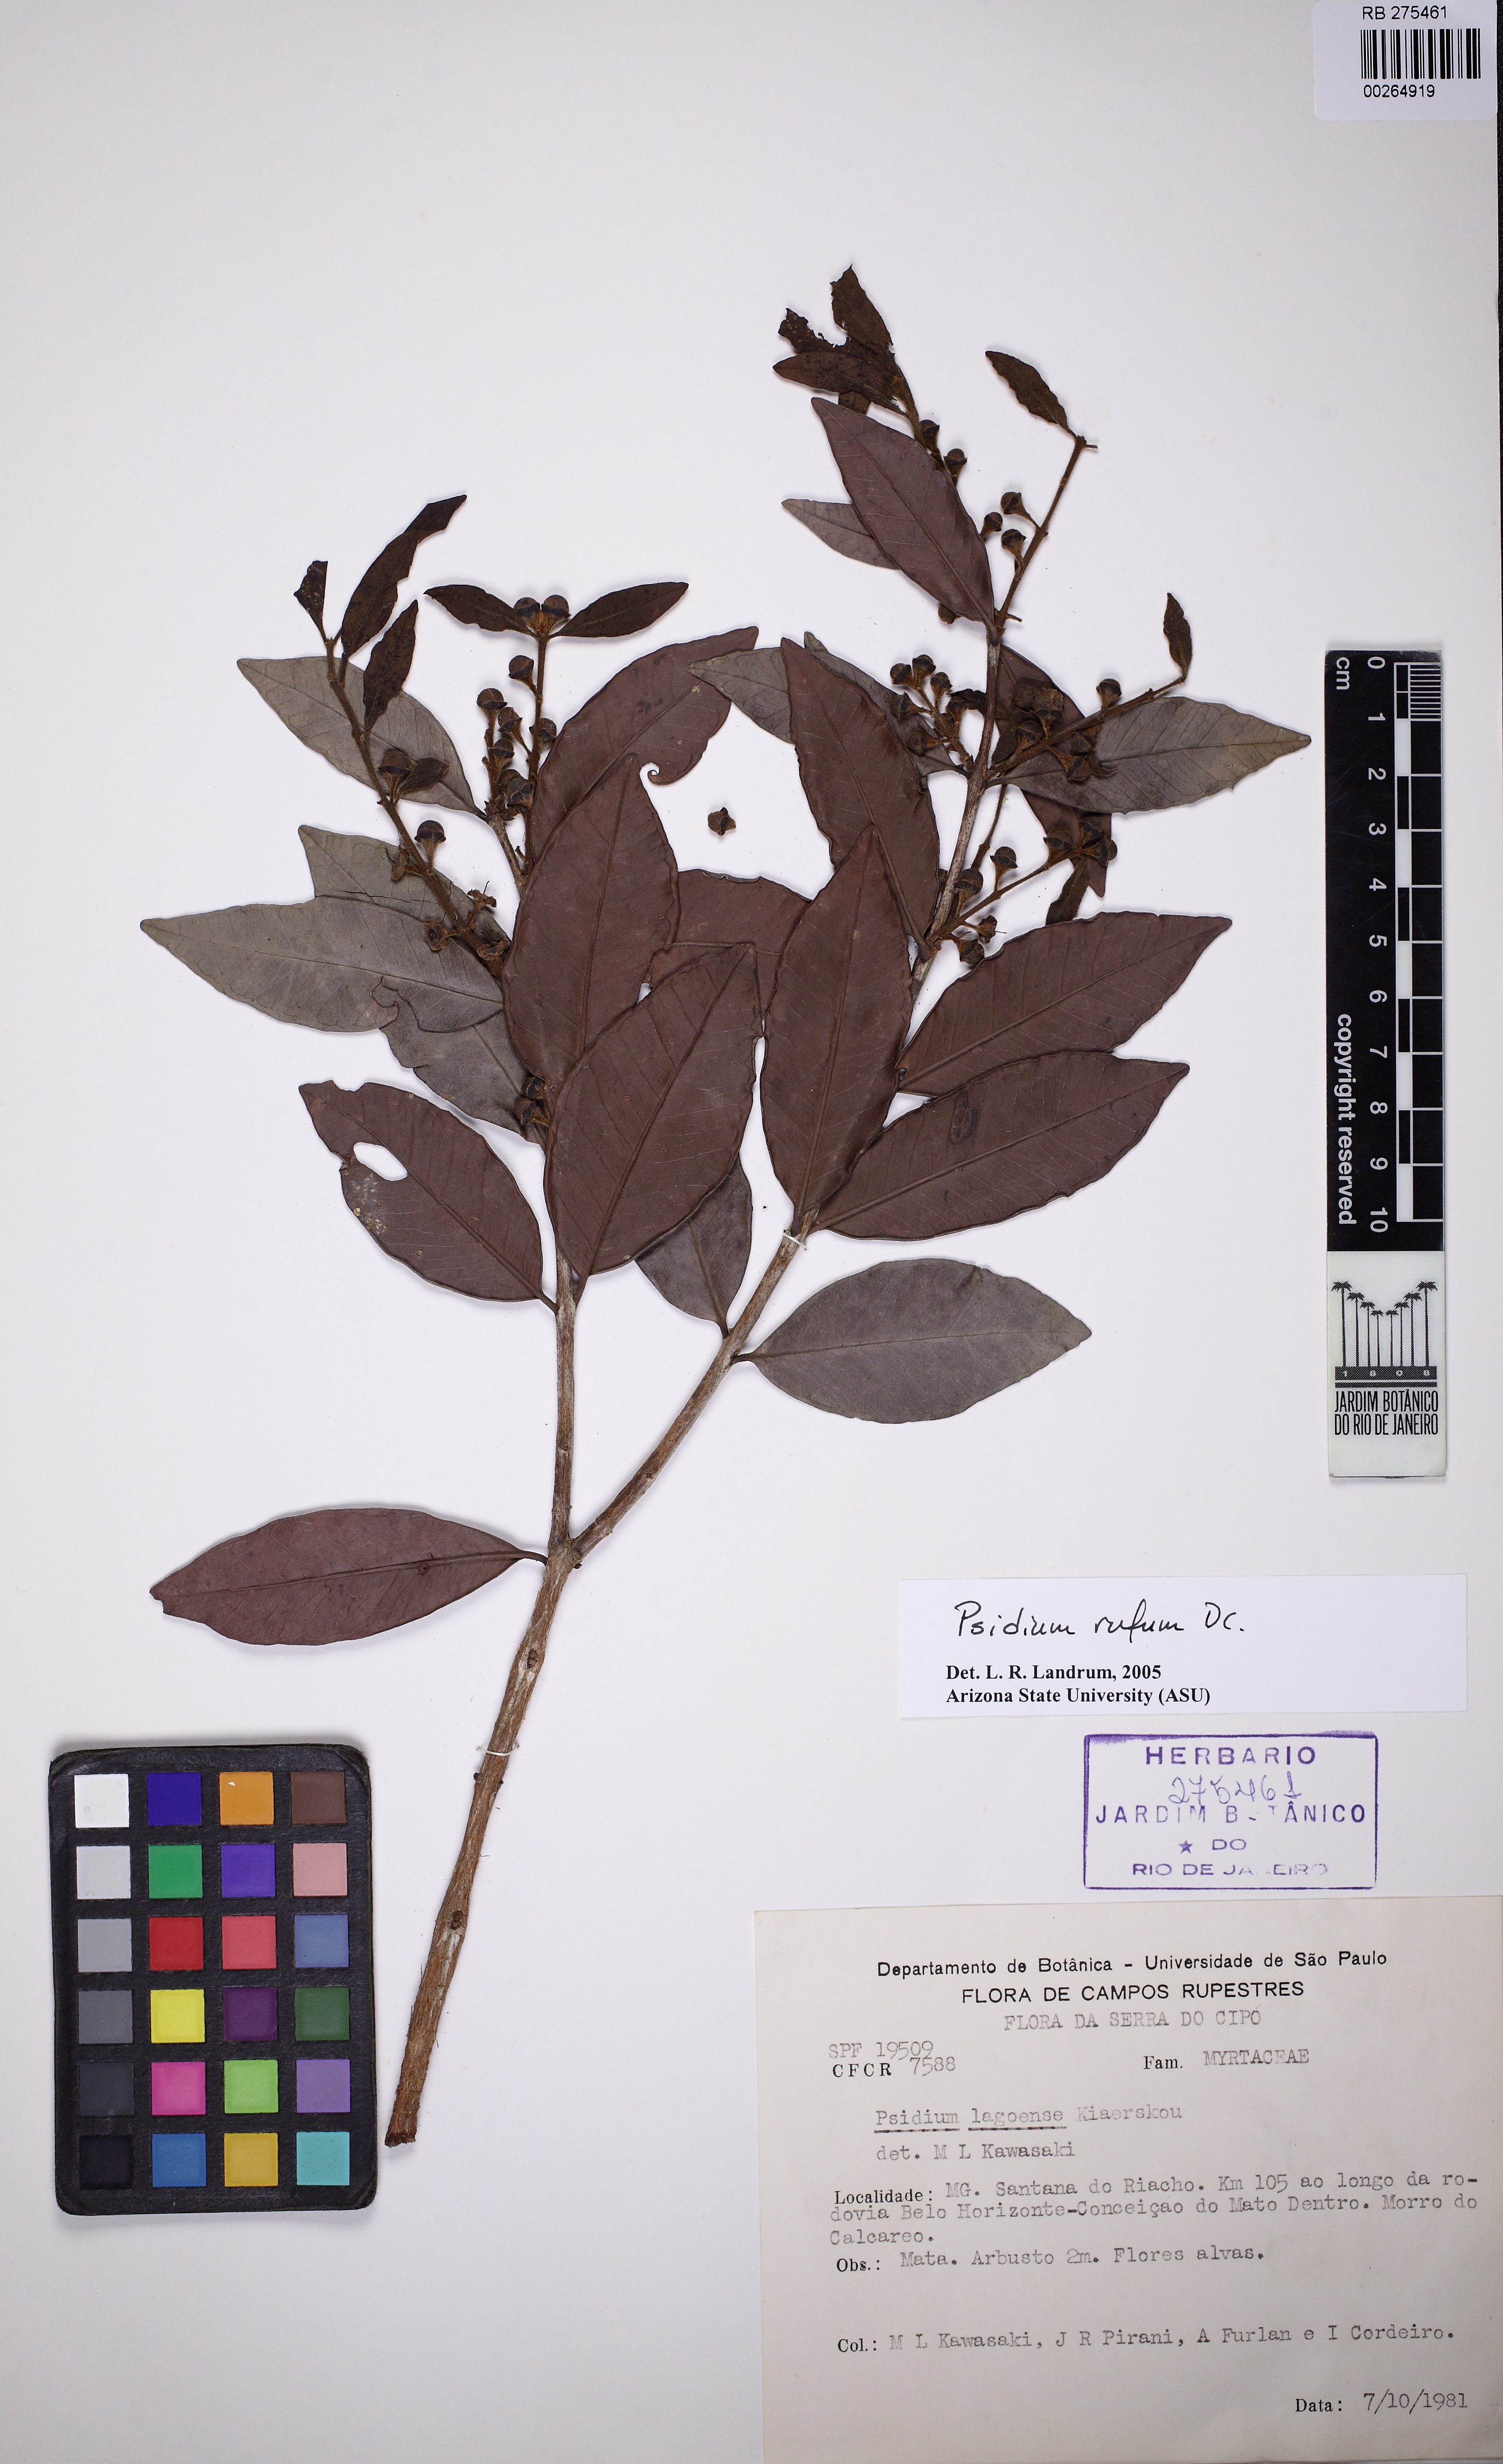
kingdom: Plantae
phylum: Tracheophyta
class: Magnoliopsida
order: Myrtales
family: Myrtaceae
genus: Psidium
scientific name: Psidium rufum
